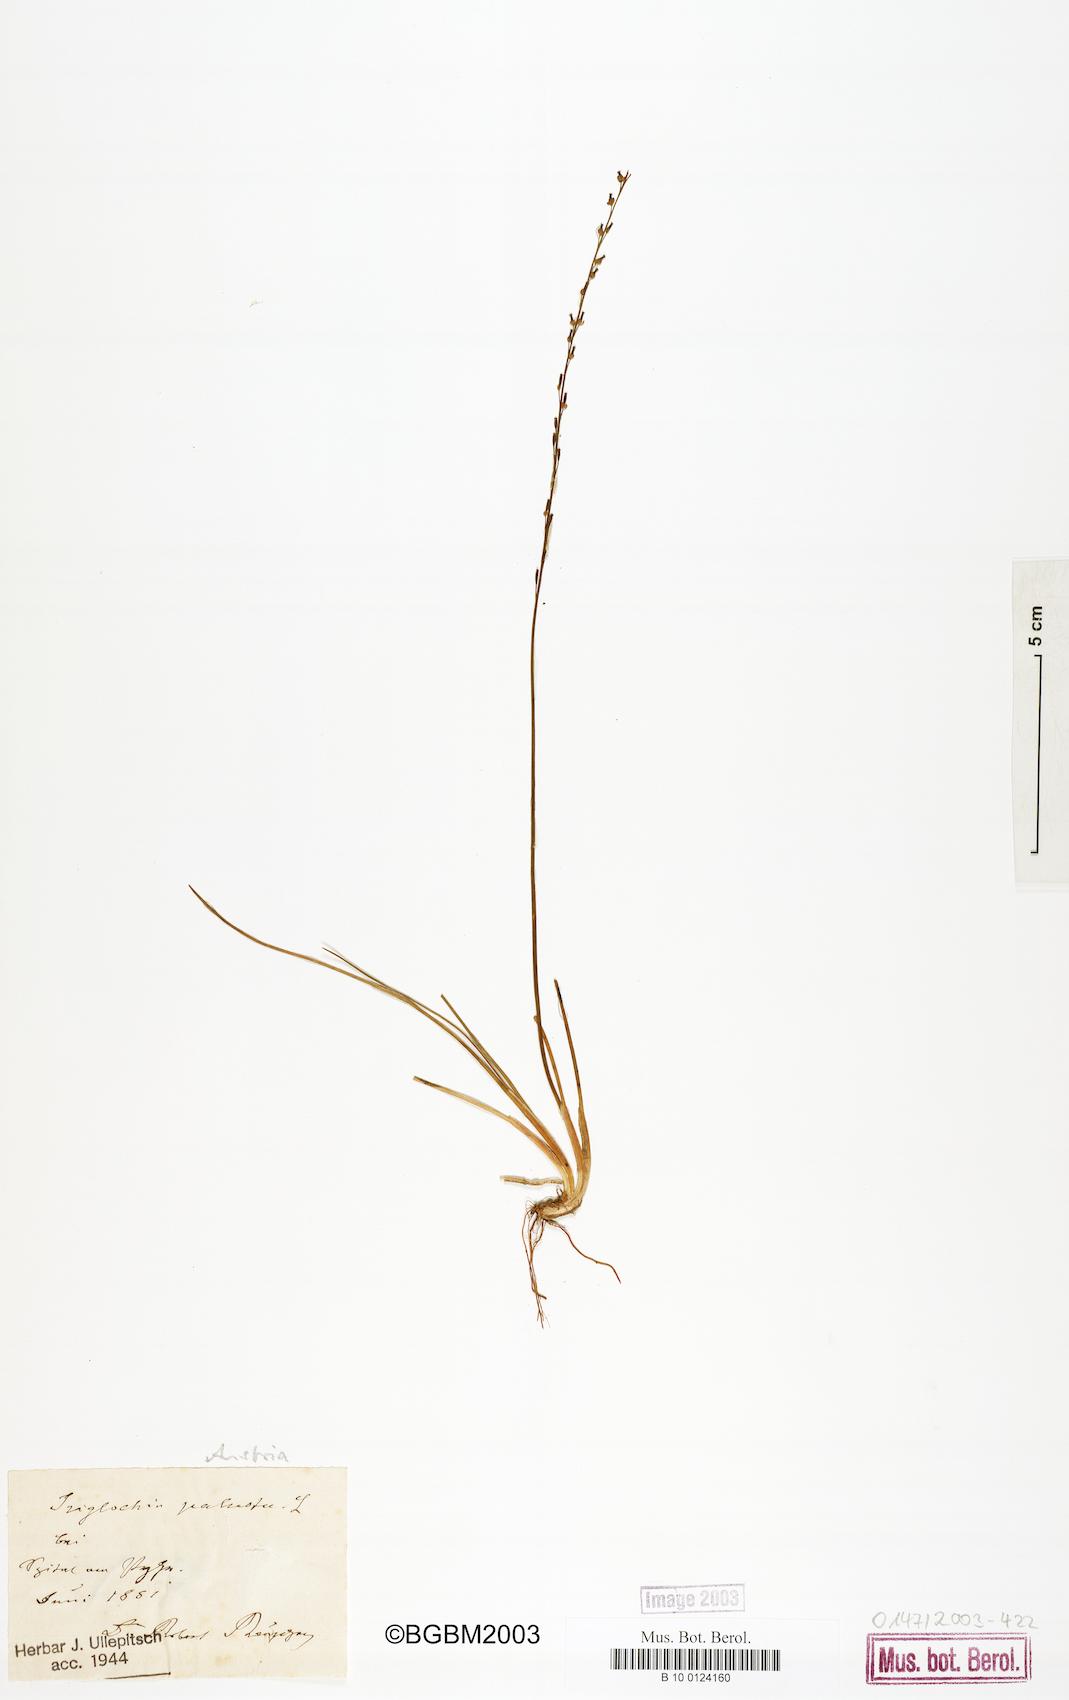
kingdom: Plantae
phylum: Tracheophyta
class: Liliopsida
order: Alismatales
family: Juncaginaceae
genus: Triglochin
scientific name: Triglochin palustris
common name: Marsh arrowgrass
